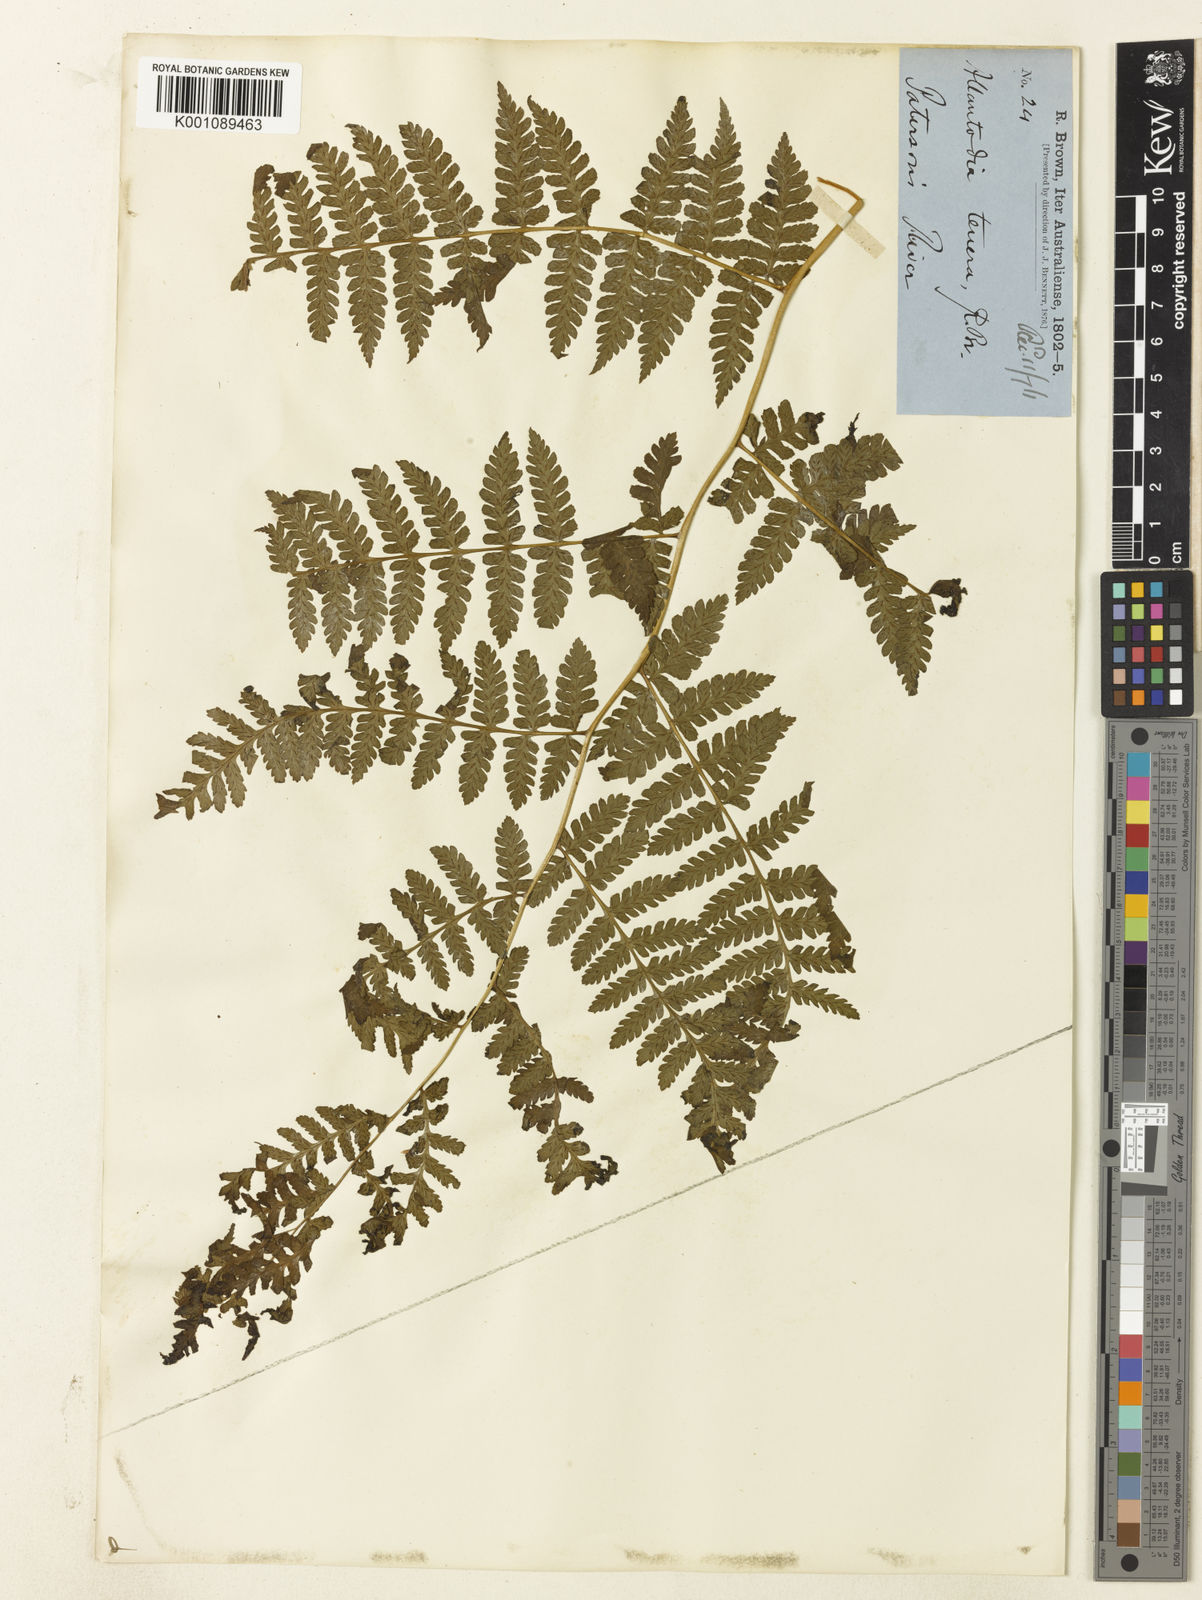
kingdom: Plantae
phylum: Tracheophyta
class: Polypodiopsida
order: Polypodiales
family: Athyriaceae
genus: Diplazium
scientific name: Diplazium australe
